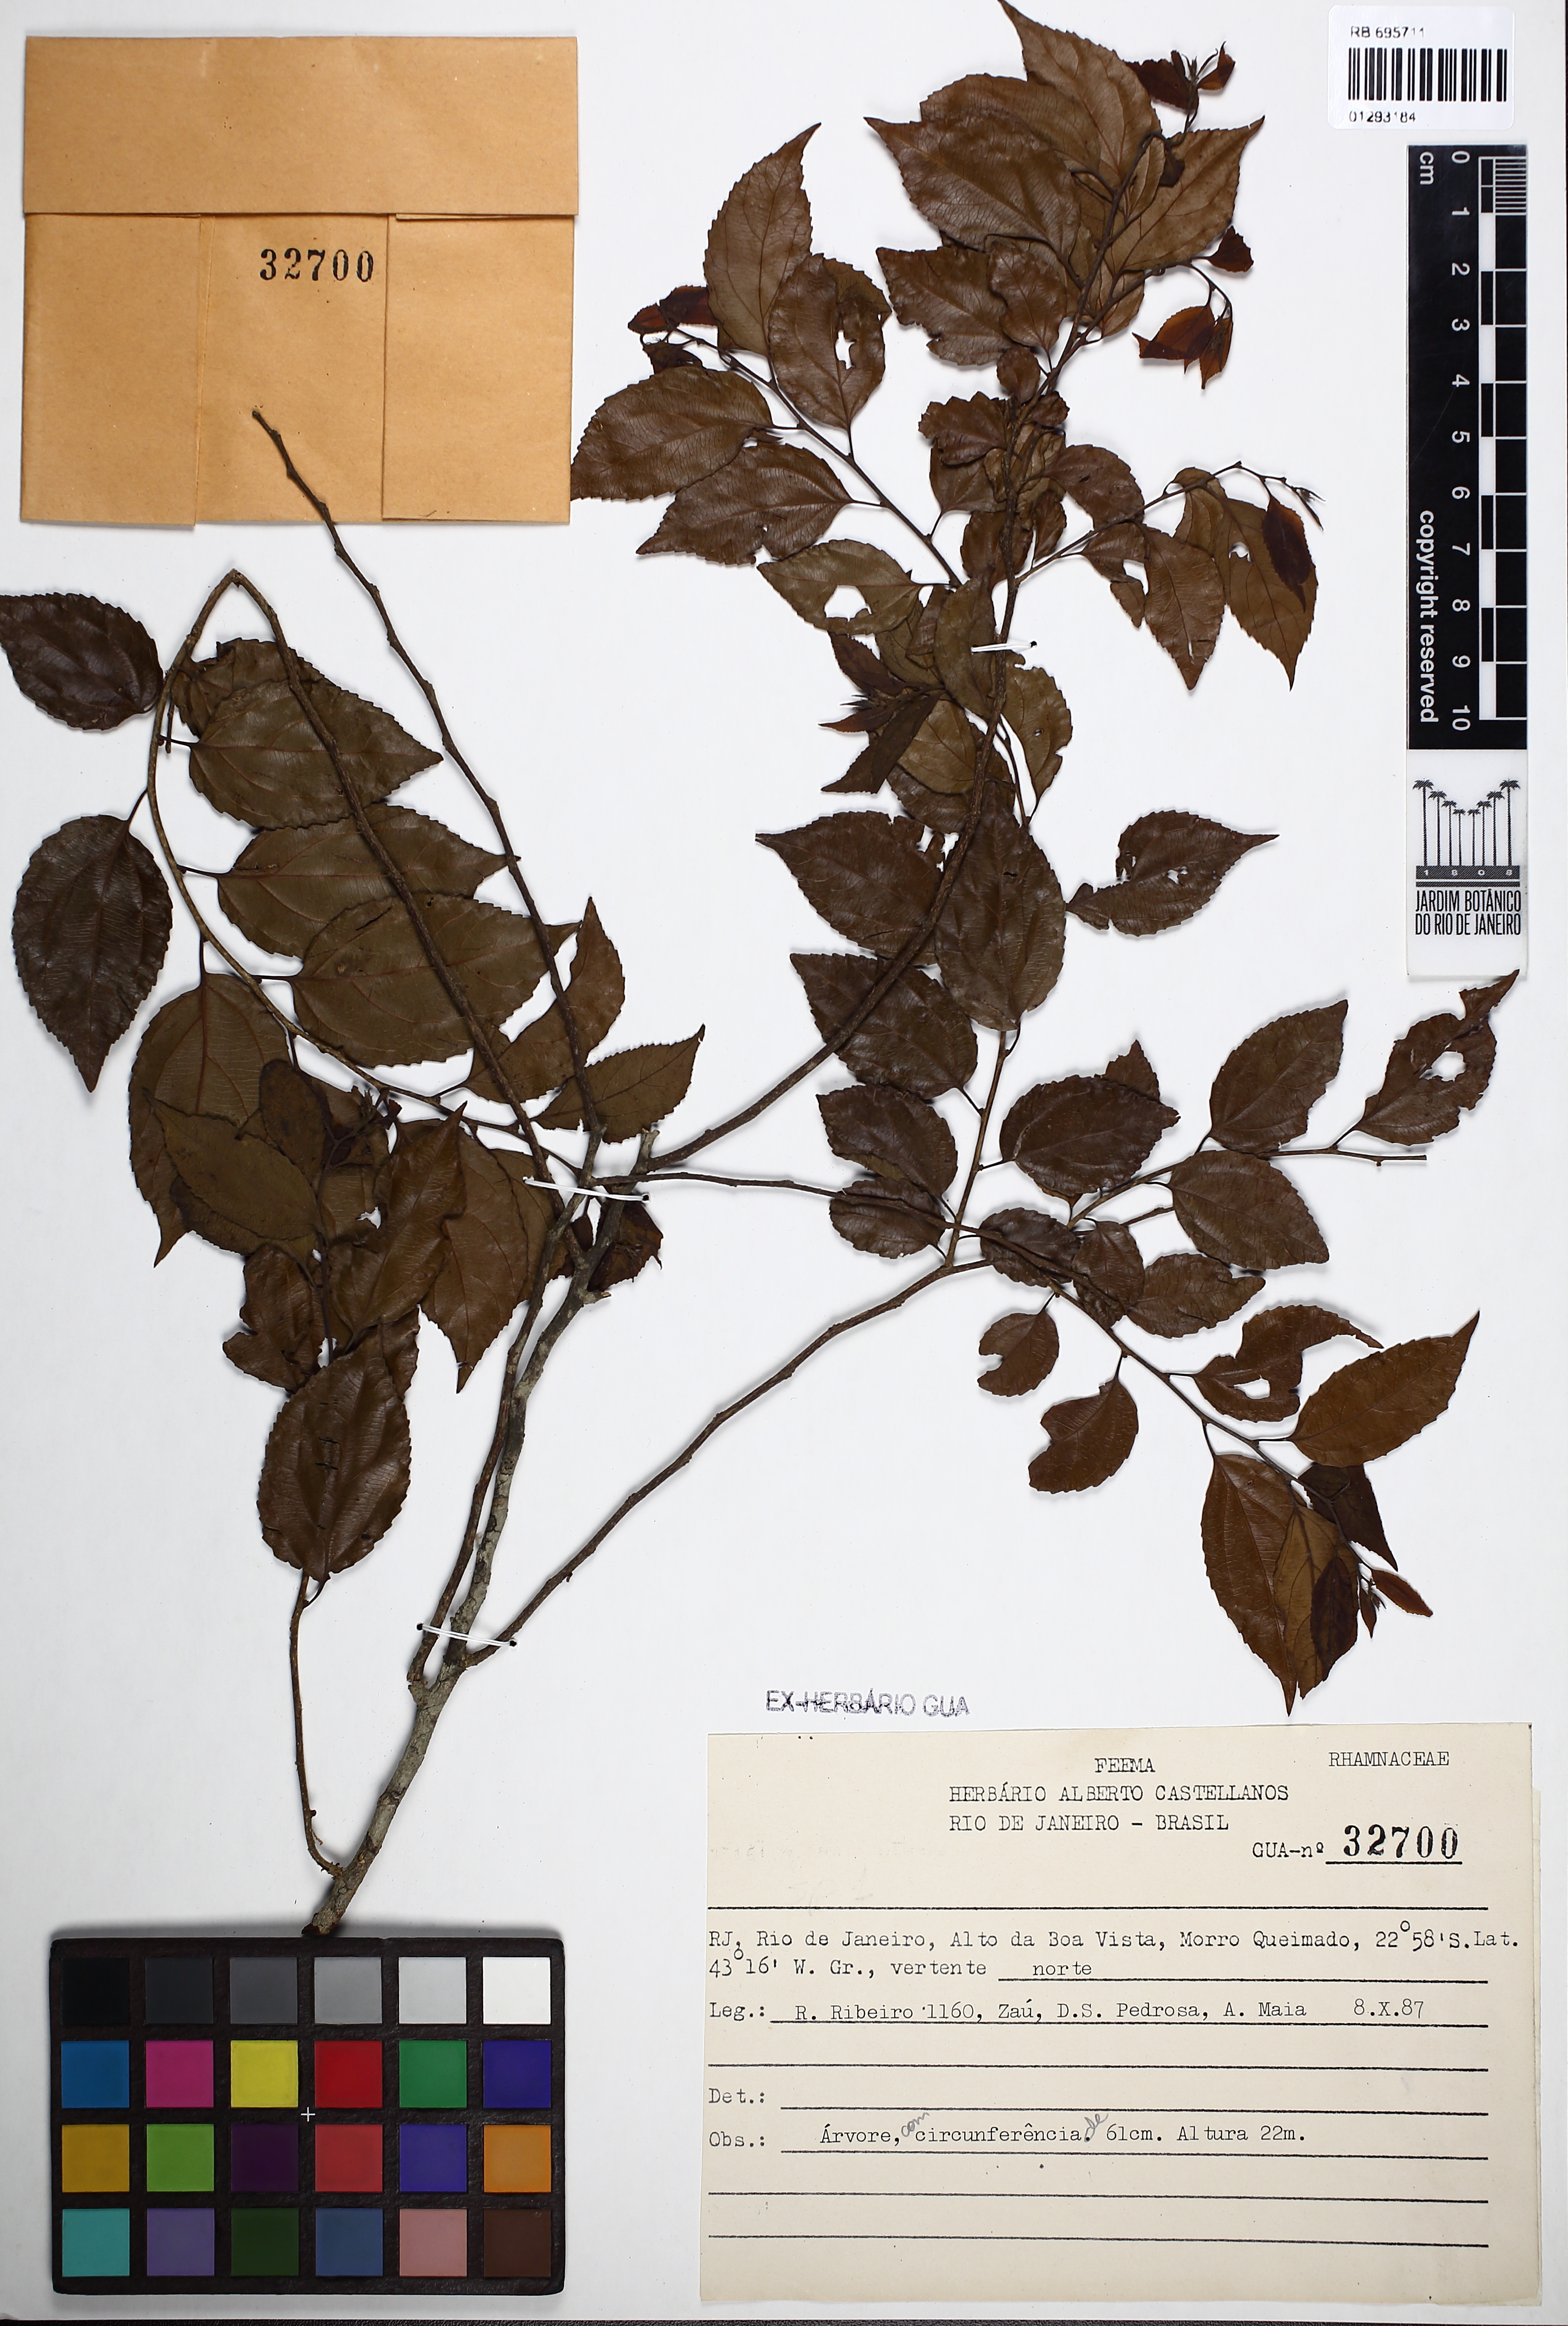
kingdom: Plantae
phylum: Tracheophyta
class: Magnoliopsida
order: Rosales
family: Rhamnaceae
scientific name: Rhamnaceae
